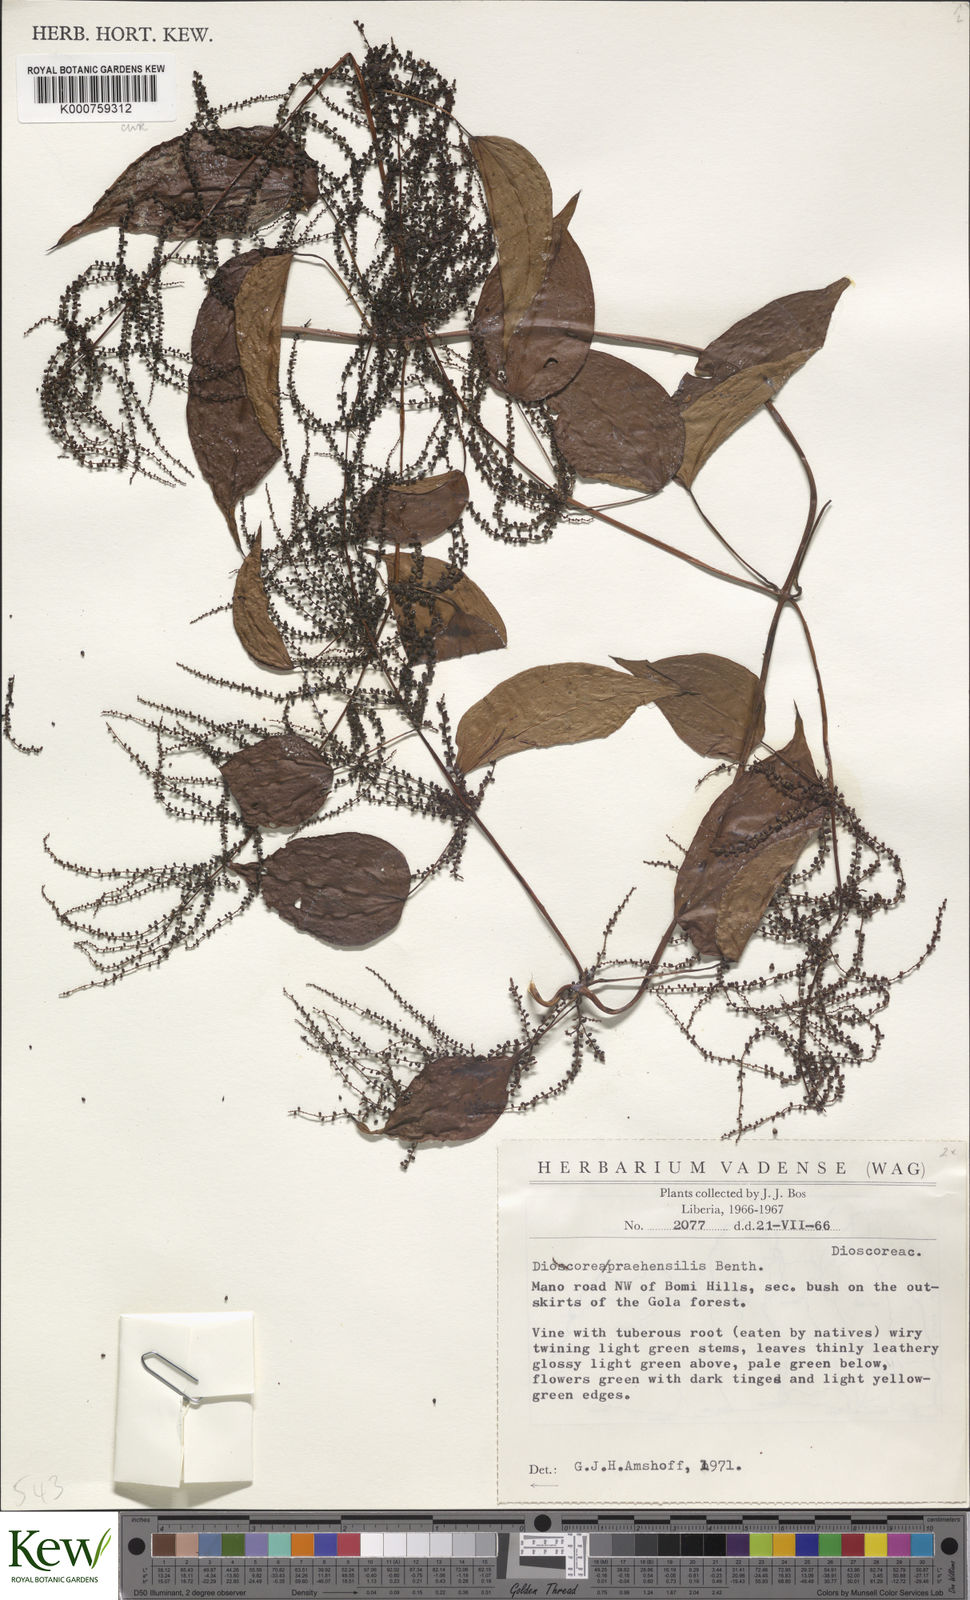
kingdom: Plantae
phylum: Tracheophyta
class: Liliopsida
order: Dioscoreales
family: Dioscoreaceae
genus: Dioscorea
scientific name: Dioscorea praehensilis
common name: Bush yam
